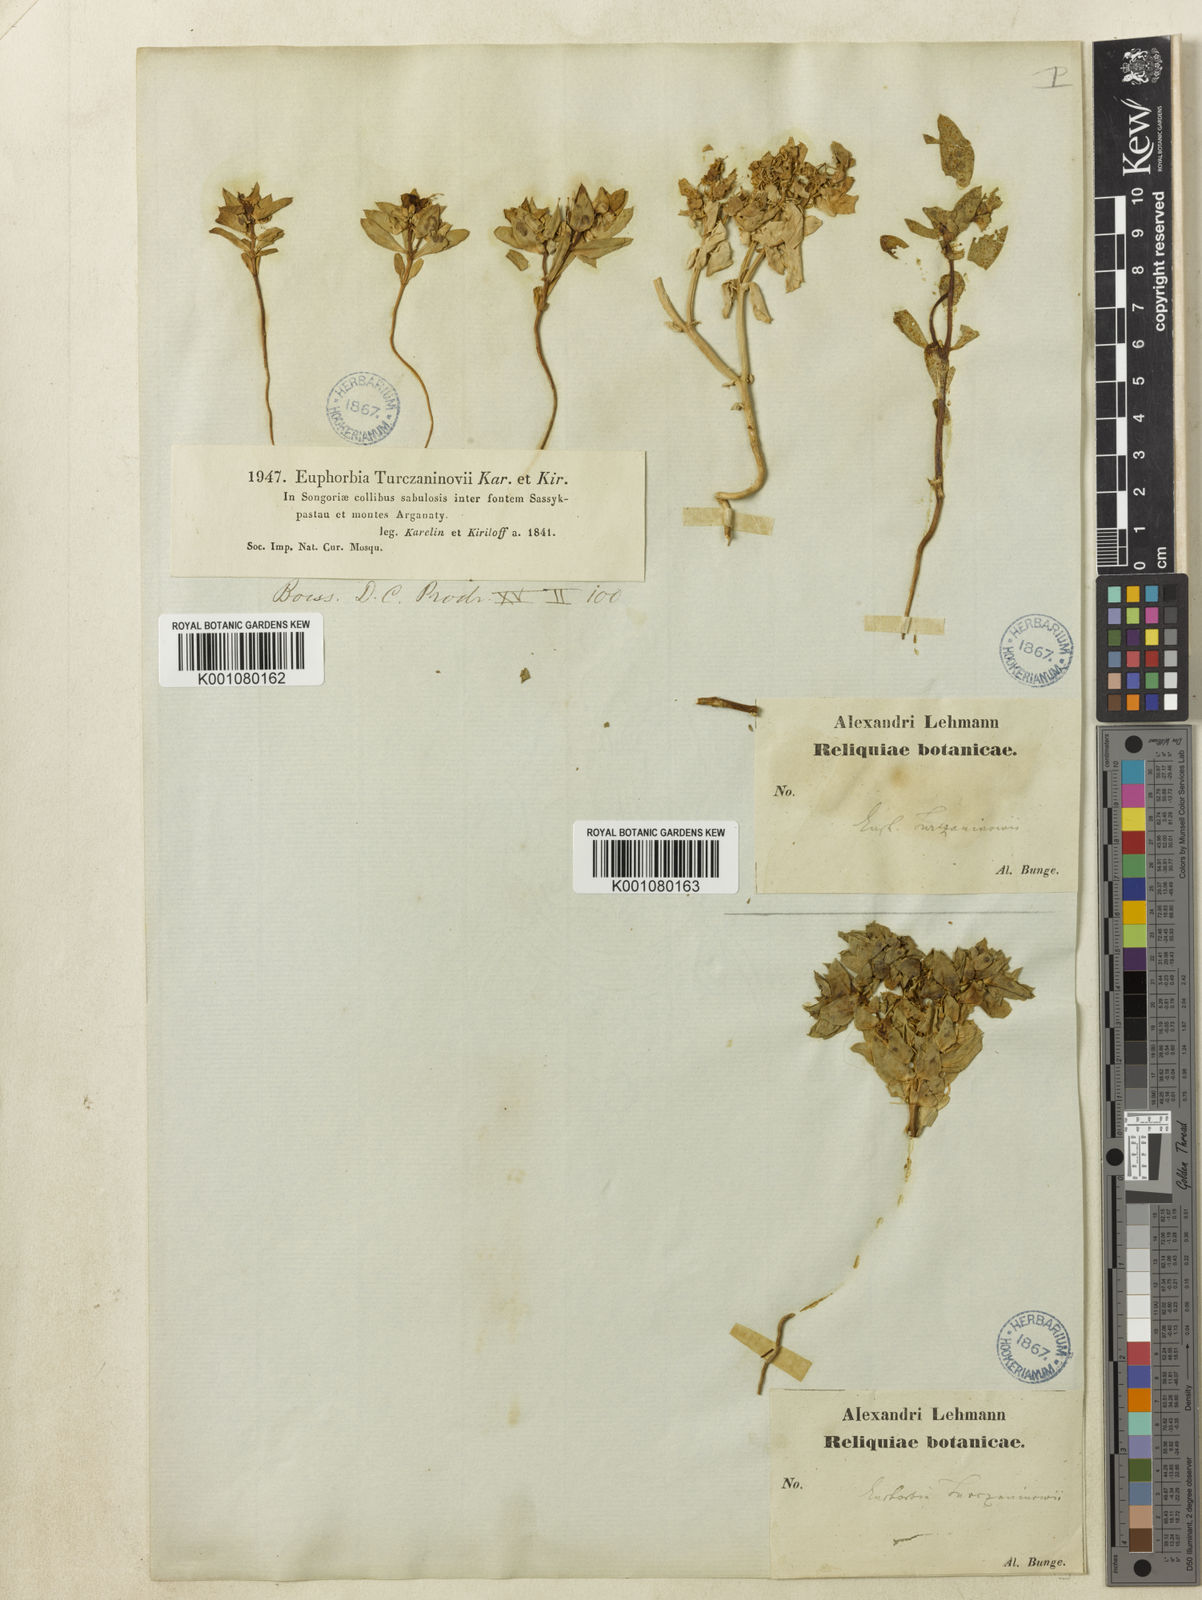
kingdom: Plantae
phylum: Tracheophyta
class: Magnoliopsida
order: Malpighiales
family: Euphorbiaceae
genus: Euphorbia
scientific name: Euphorbia turczaninowii
